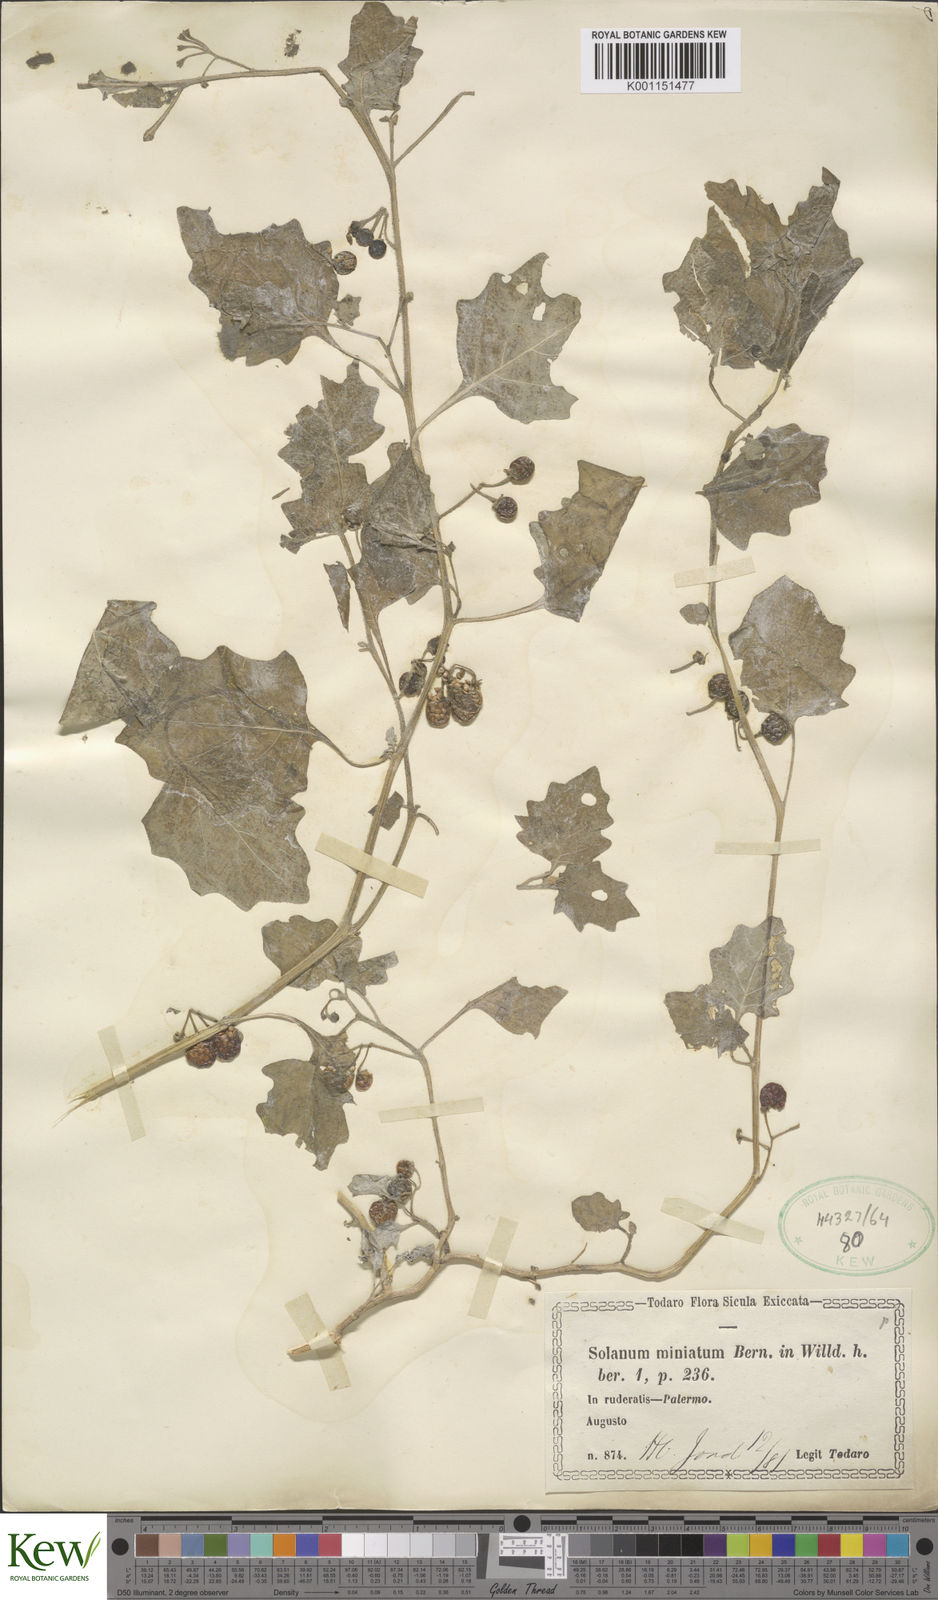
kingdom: Plantae
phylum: Tracheophyta
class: Magnoliopsida
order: Solanales
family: Solanaceae
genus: Solanum
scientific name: Solanum alatum
